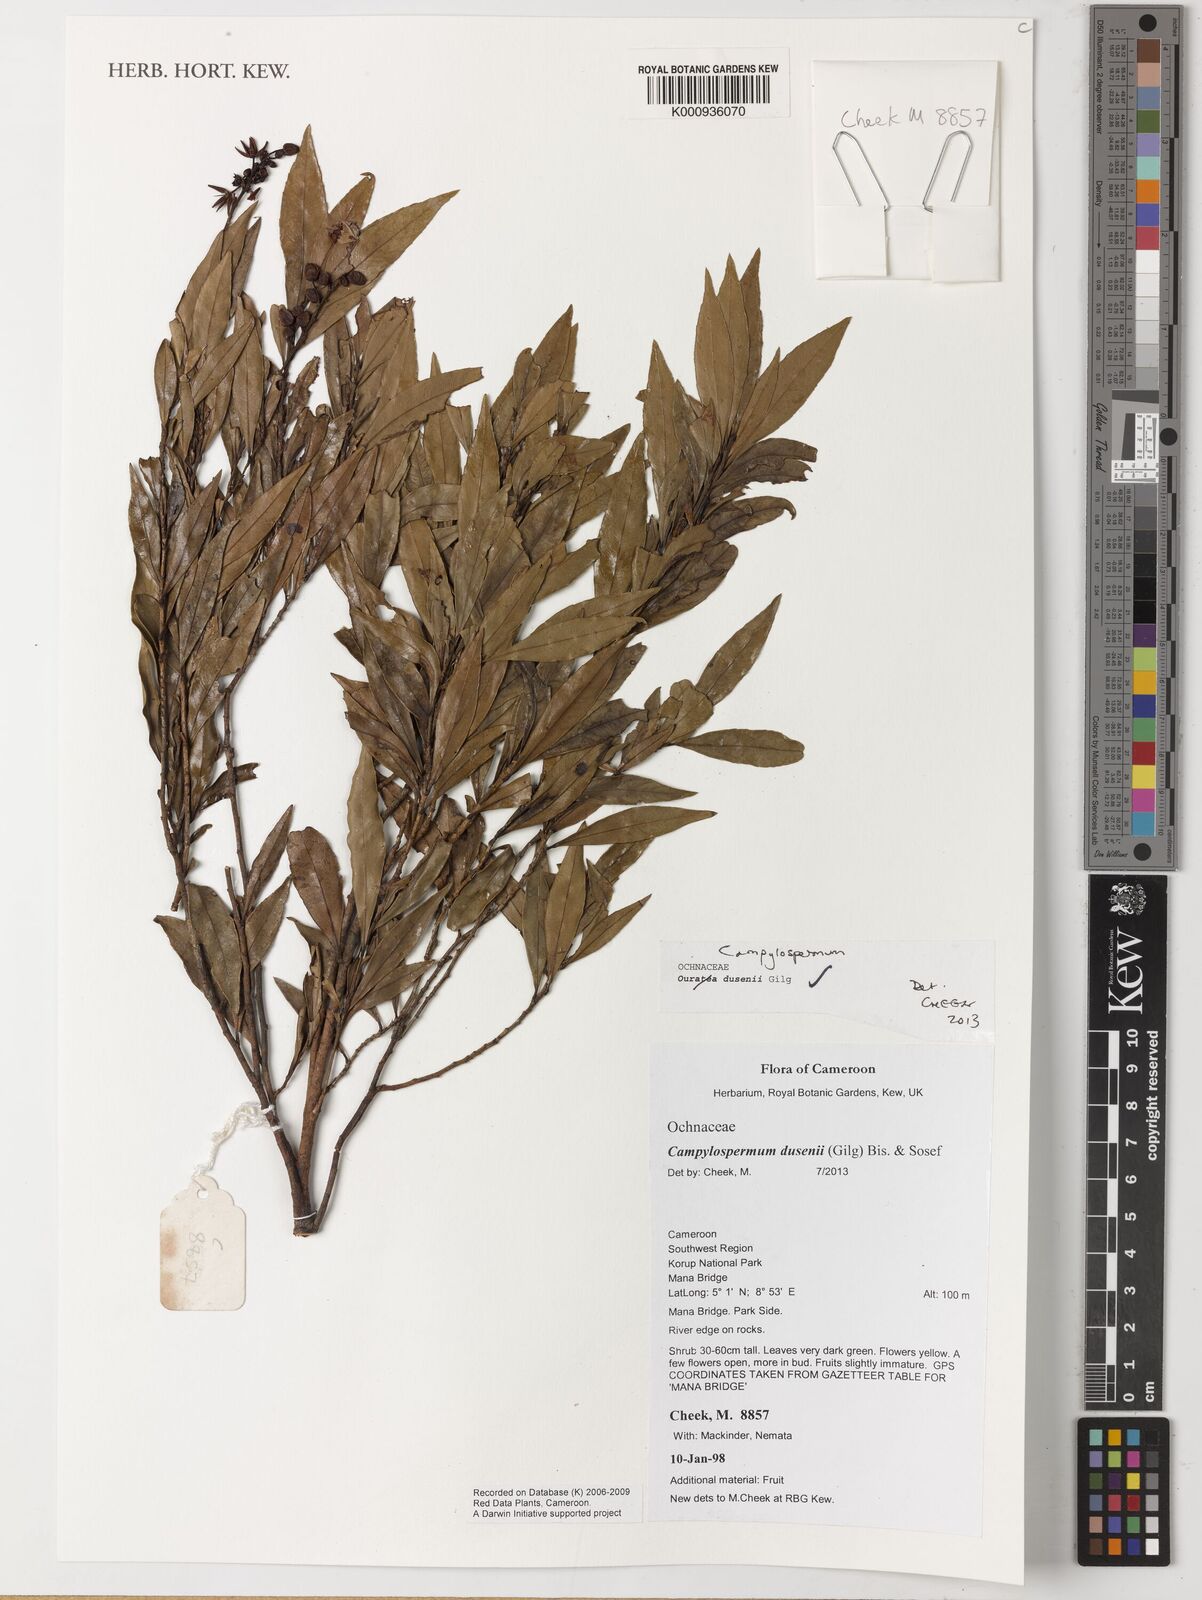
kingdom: Plantae
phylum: Tracheophyta
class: Magnoliopsida
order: Malpighiales
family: Ochnaceae
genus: Campylospermum
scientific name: Campylospermum
